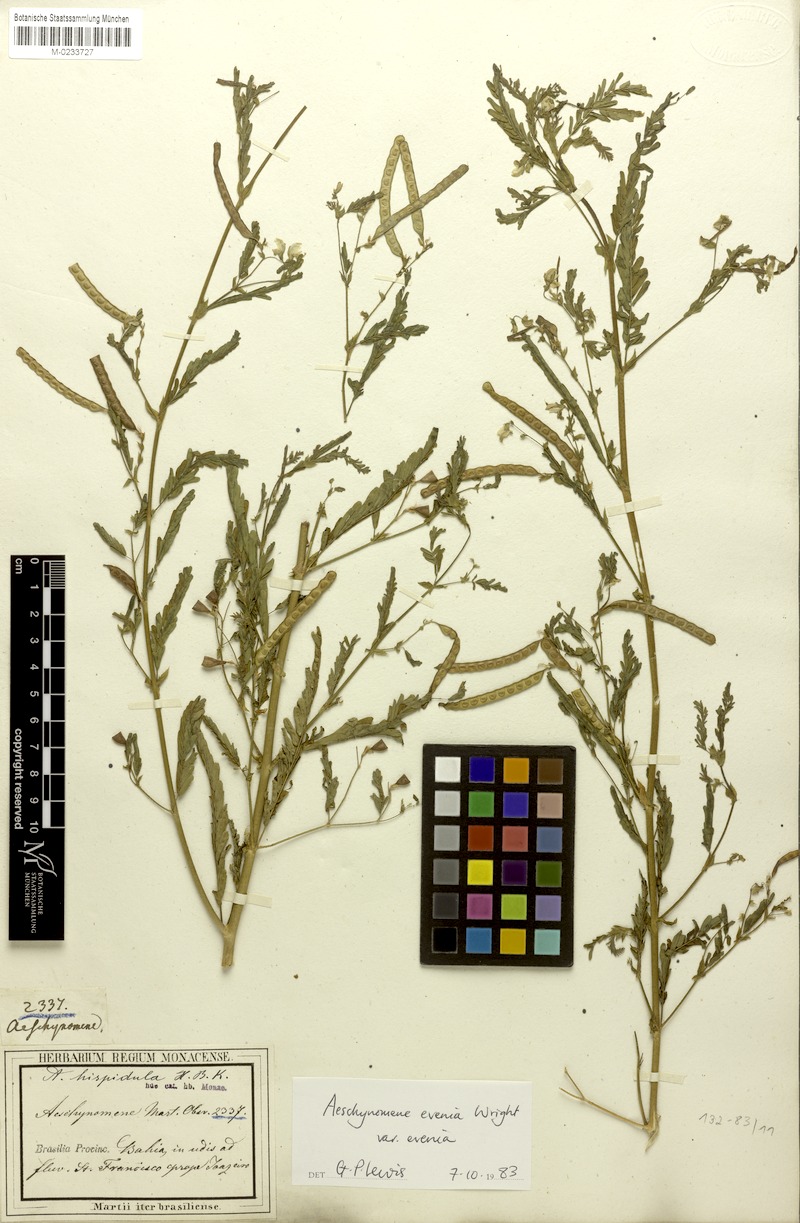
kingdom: Plantae
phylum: Tracheophyta
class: Magnoliopsida
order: Fabales
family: Fabaceae
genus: Aeschynomene
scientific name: Aeschynomene evenia
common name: Shrubby jointvetch
